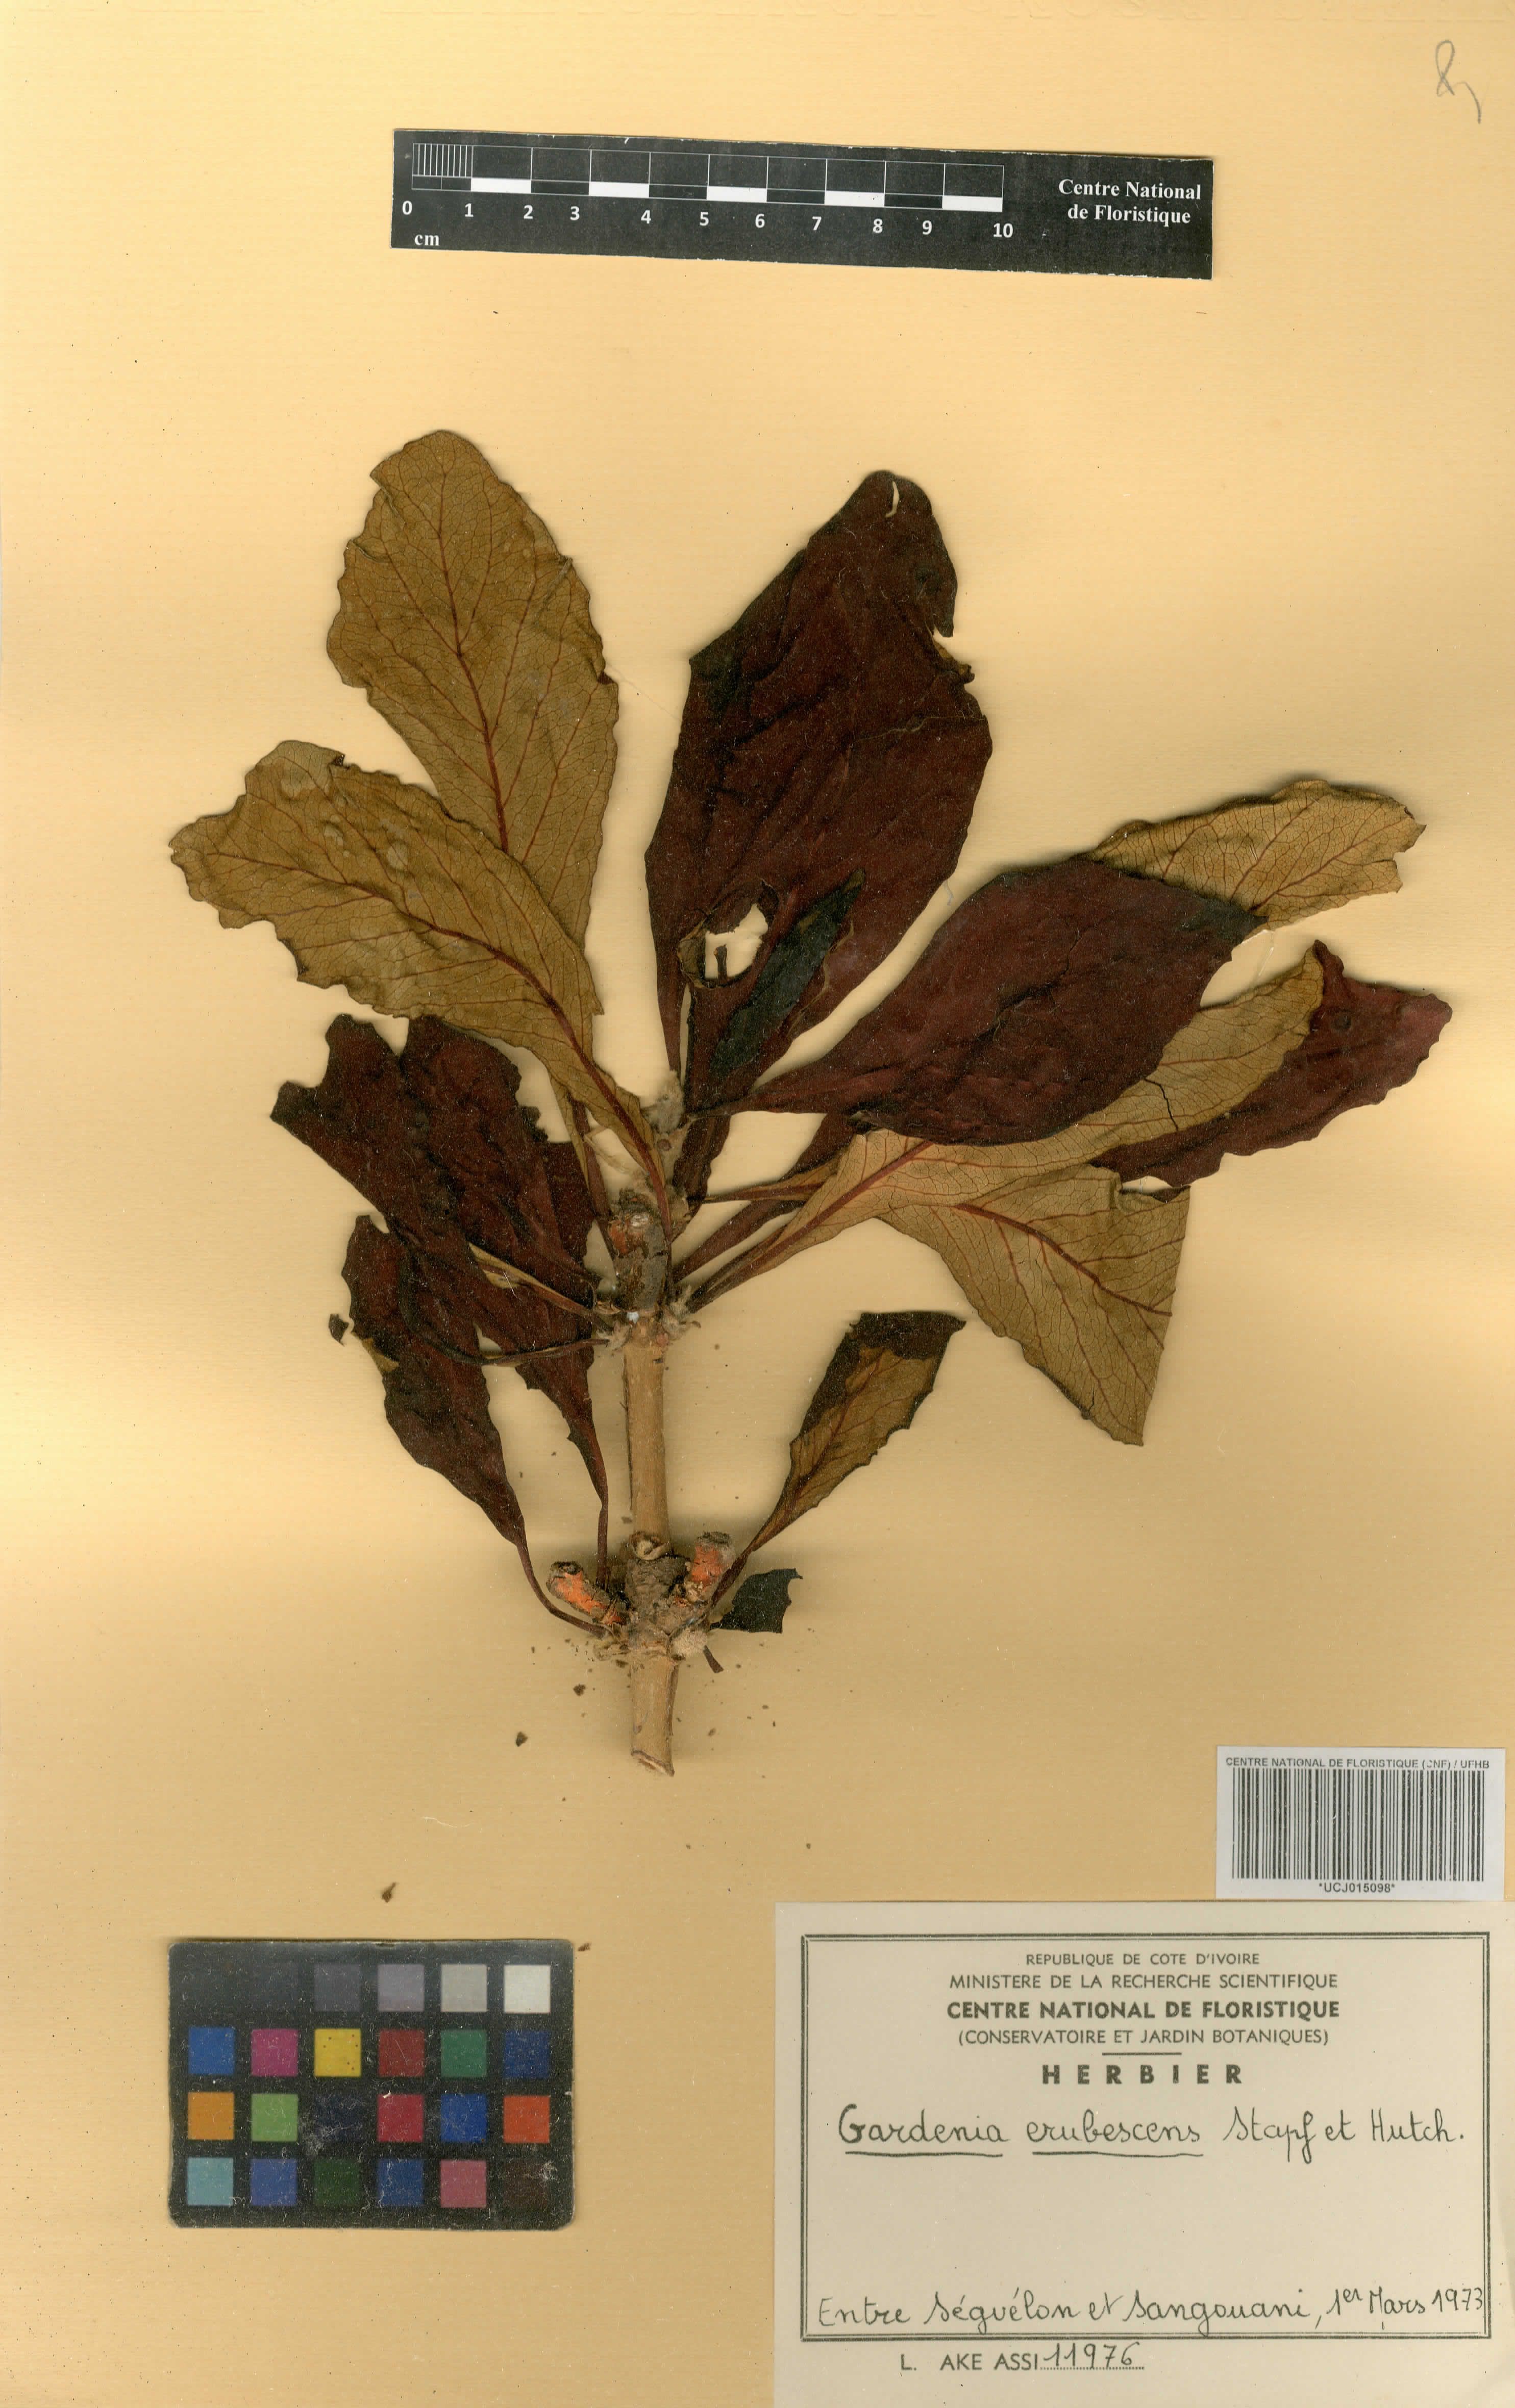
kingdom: Plantae
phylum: Tracheophyta
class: Magnoliopsida
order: Gentianales
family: Rubiaceae
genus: Gardenia
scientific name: Gardenia erubescens
